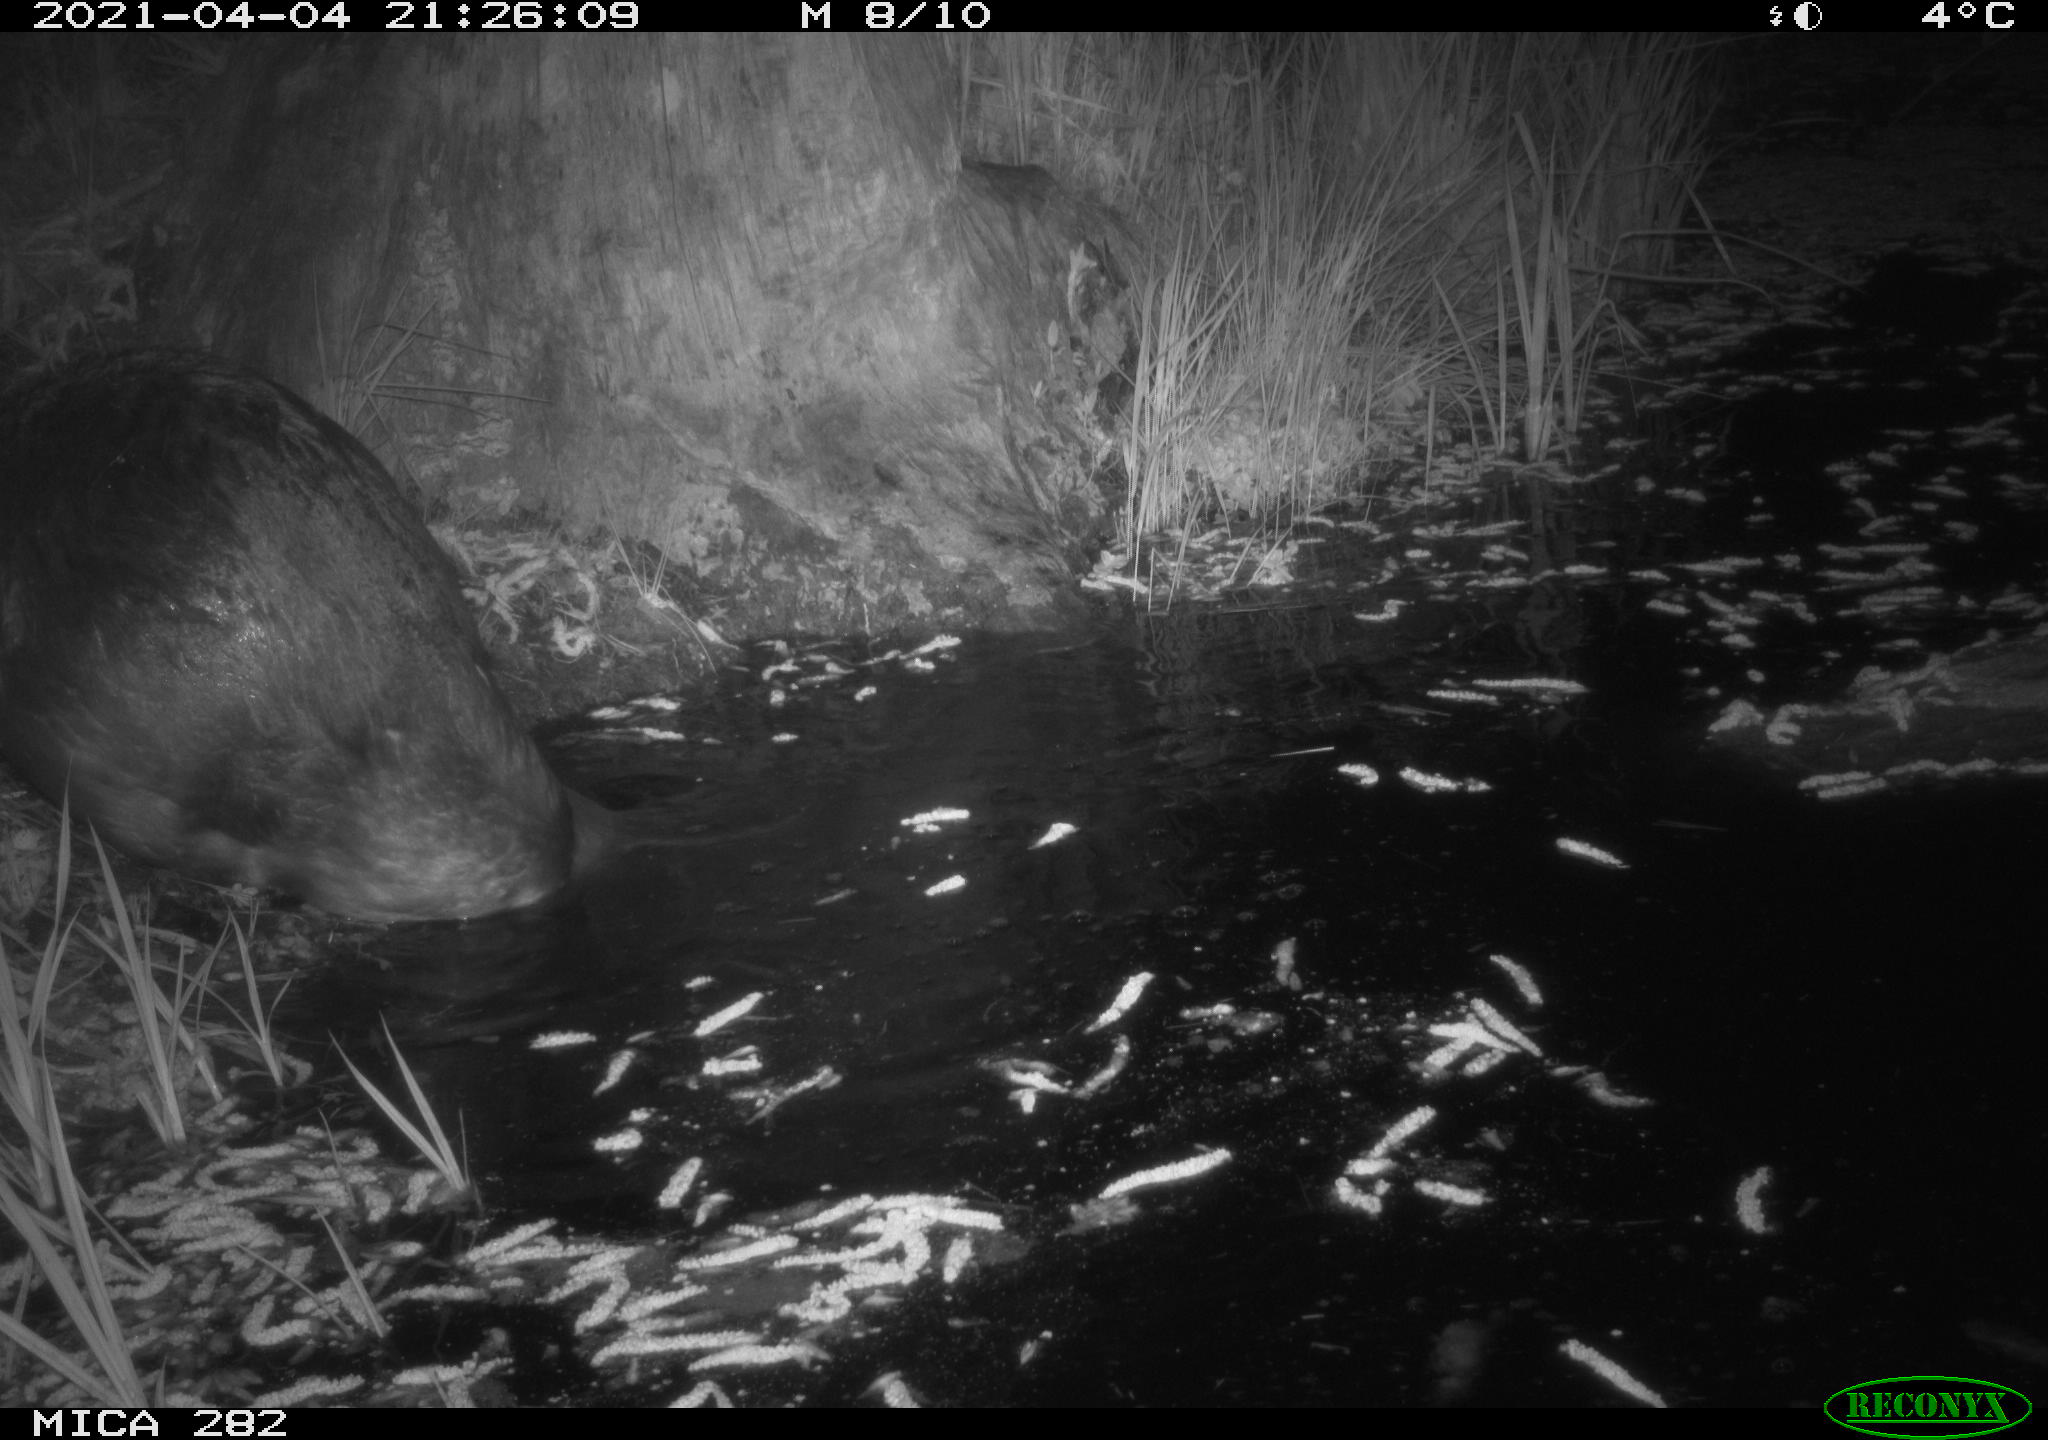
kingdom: Animalia
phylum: Chordata
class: Mammalia
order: Rodentia
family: Castoridae
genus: Castor
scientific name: Castor fiber
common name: Eurasian beaver
